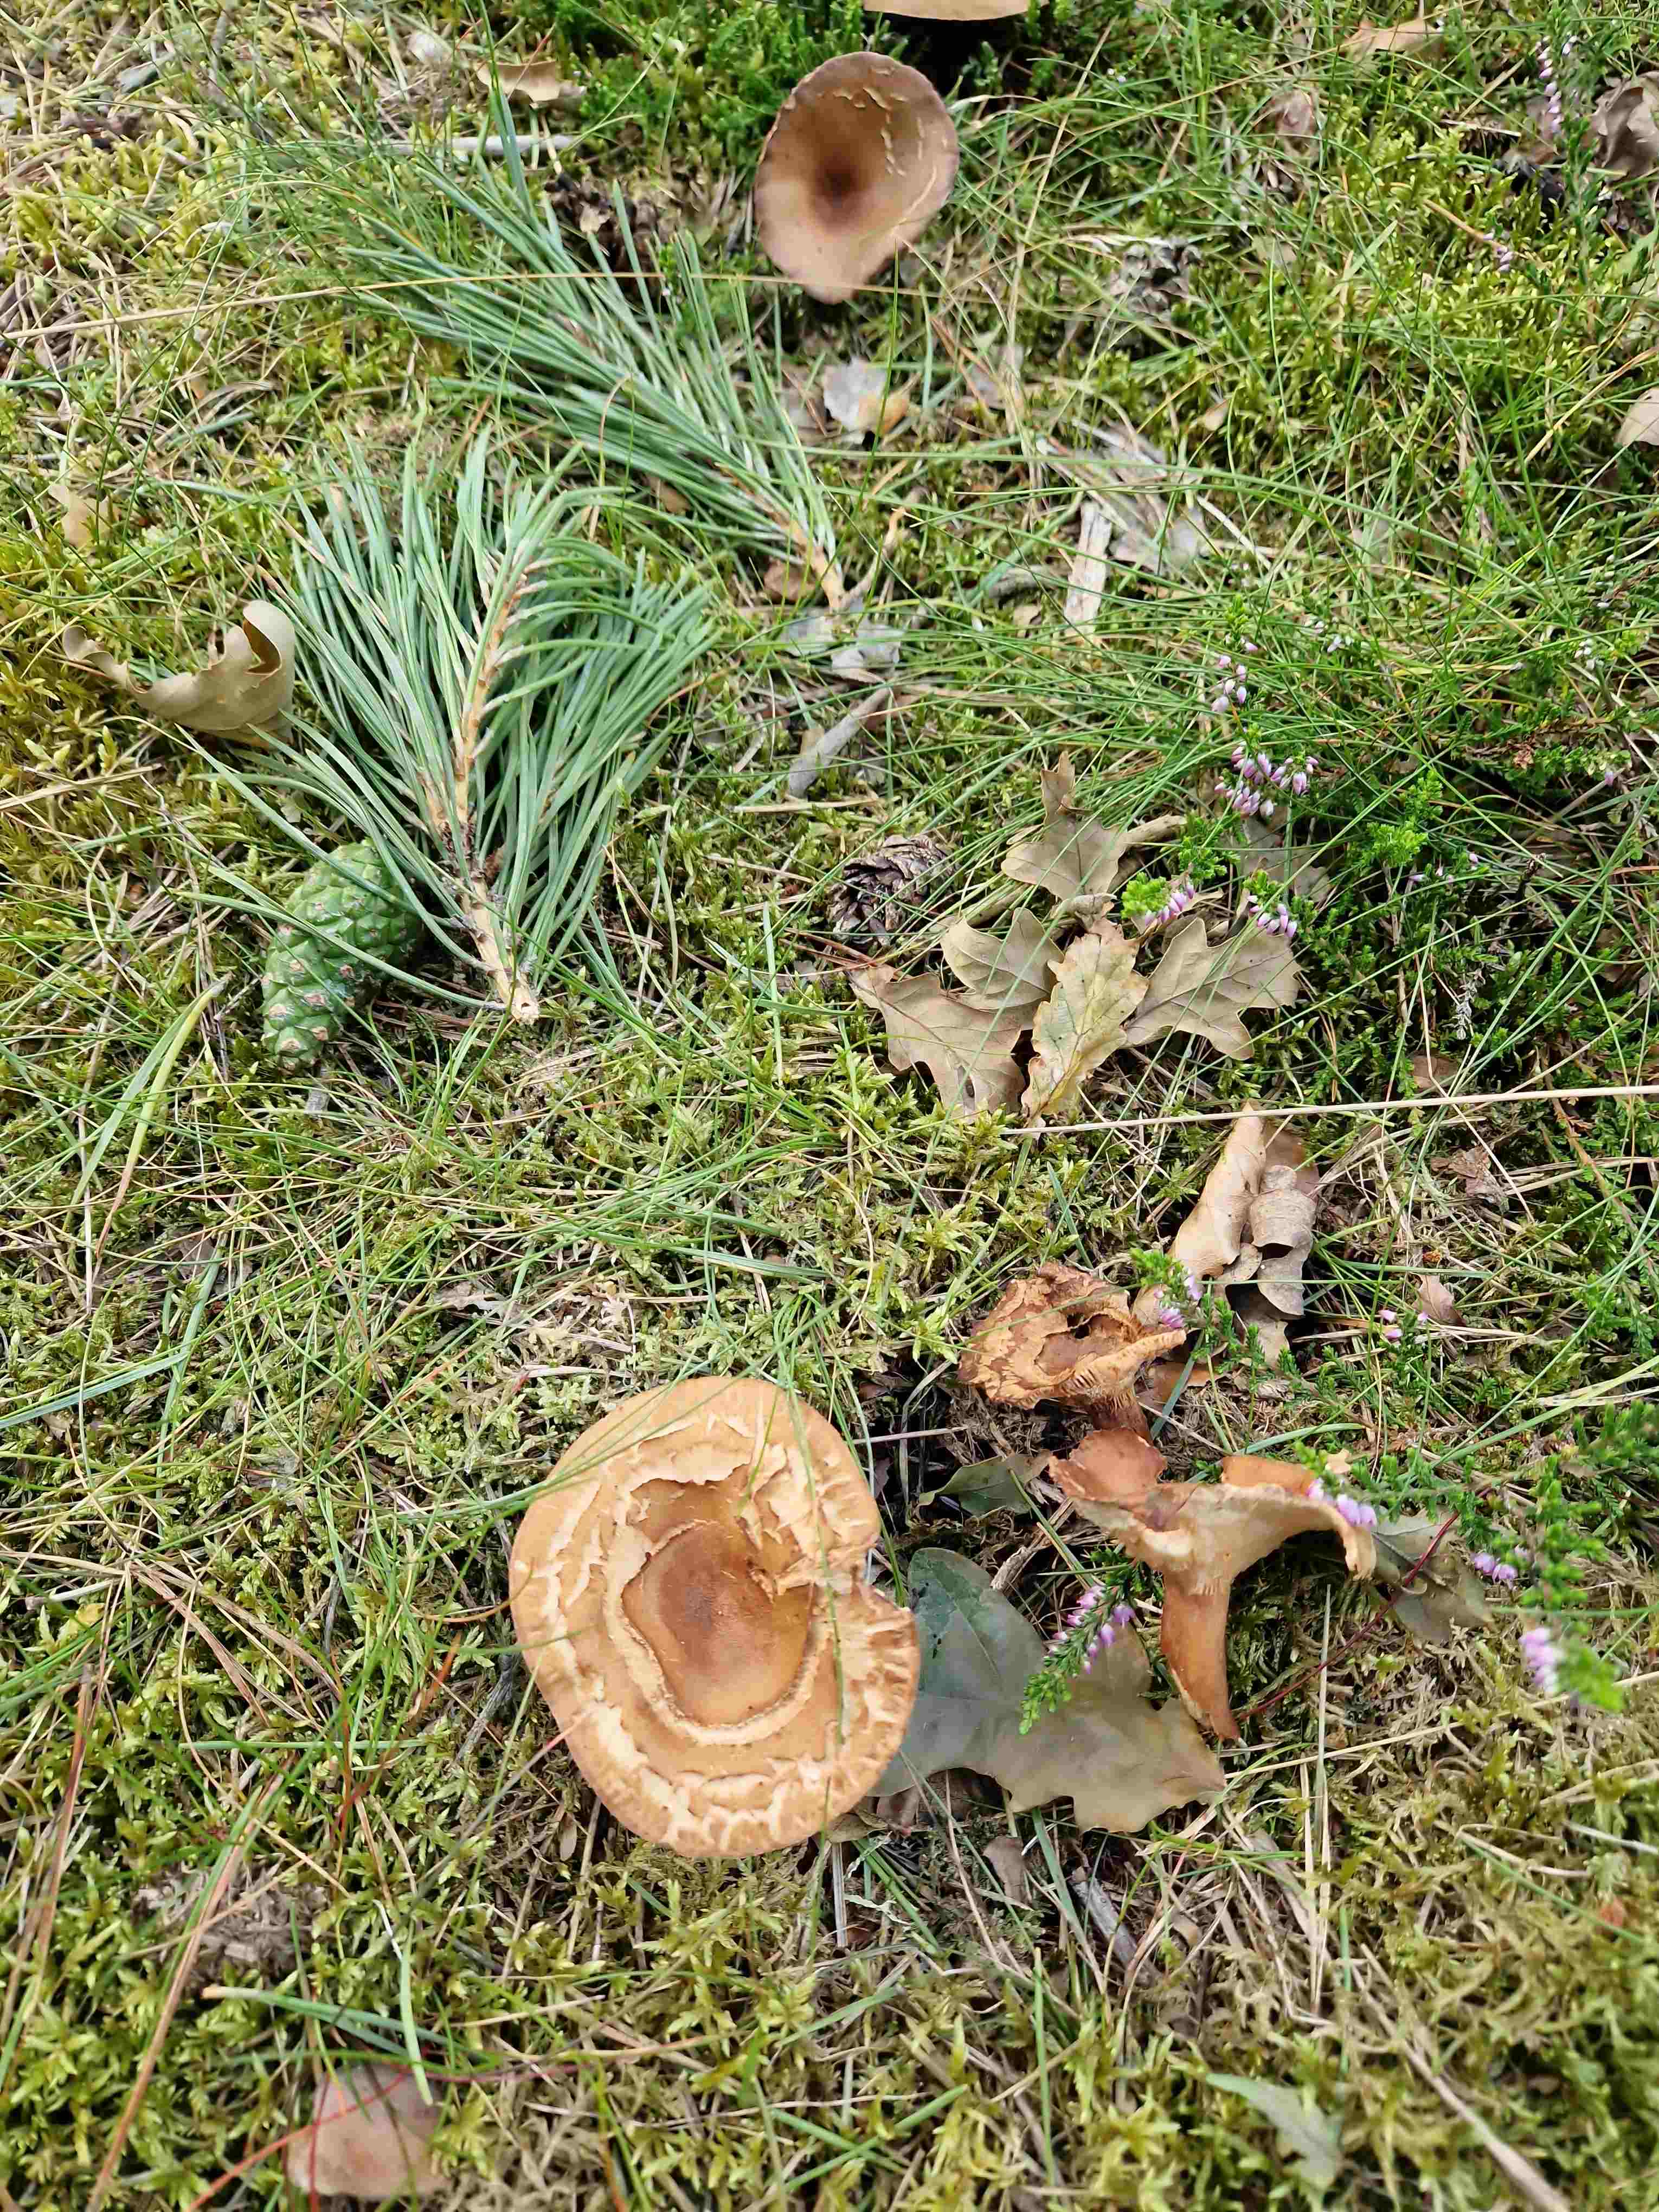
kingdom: Fungi
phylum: Basidiomycota
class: Agaricomycetes
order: Russulales
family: Russulaceae
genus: Lactarius
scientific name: Lactarius
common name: mælkehat
